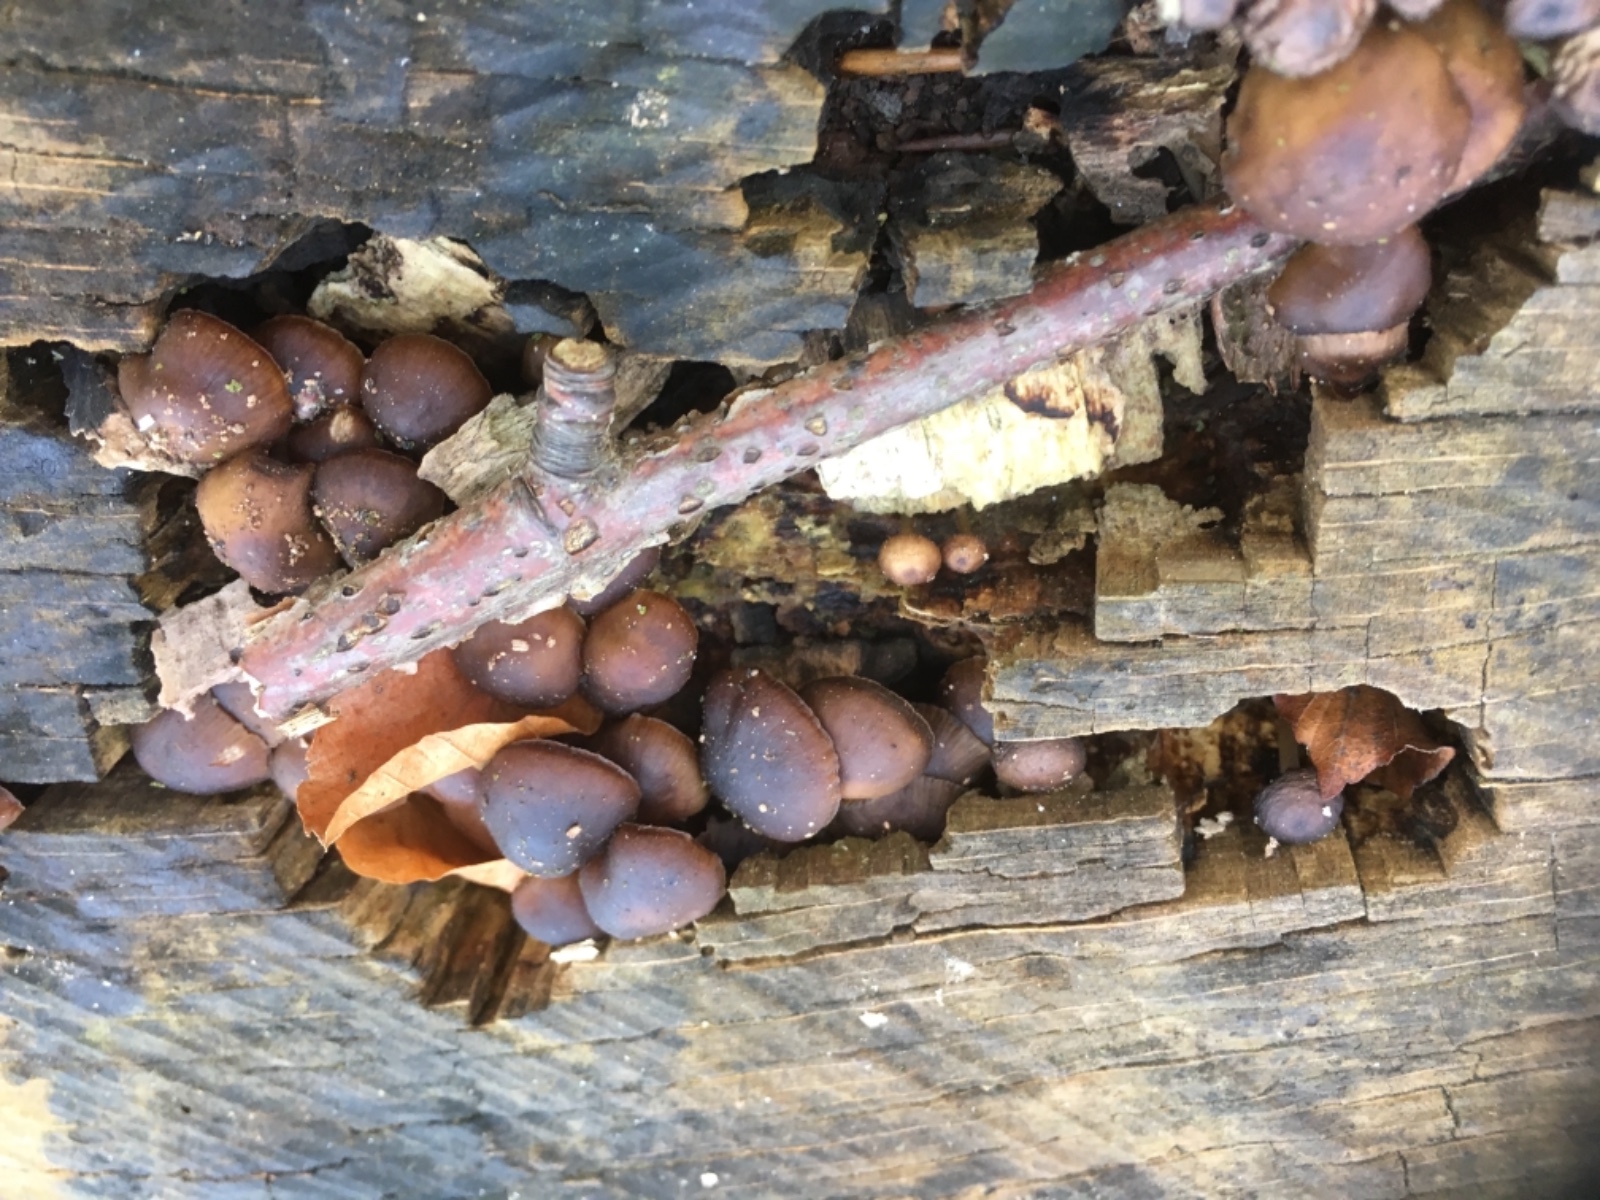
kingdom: Fungi
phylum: Basidiomycota
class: Agaricomycetes
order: Agaricales
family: Mycenaceae
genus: Mycena
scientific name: Mycena tintinnabulum
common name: vinter-huesvamp
